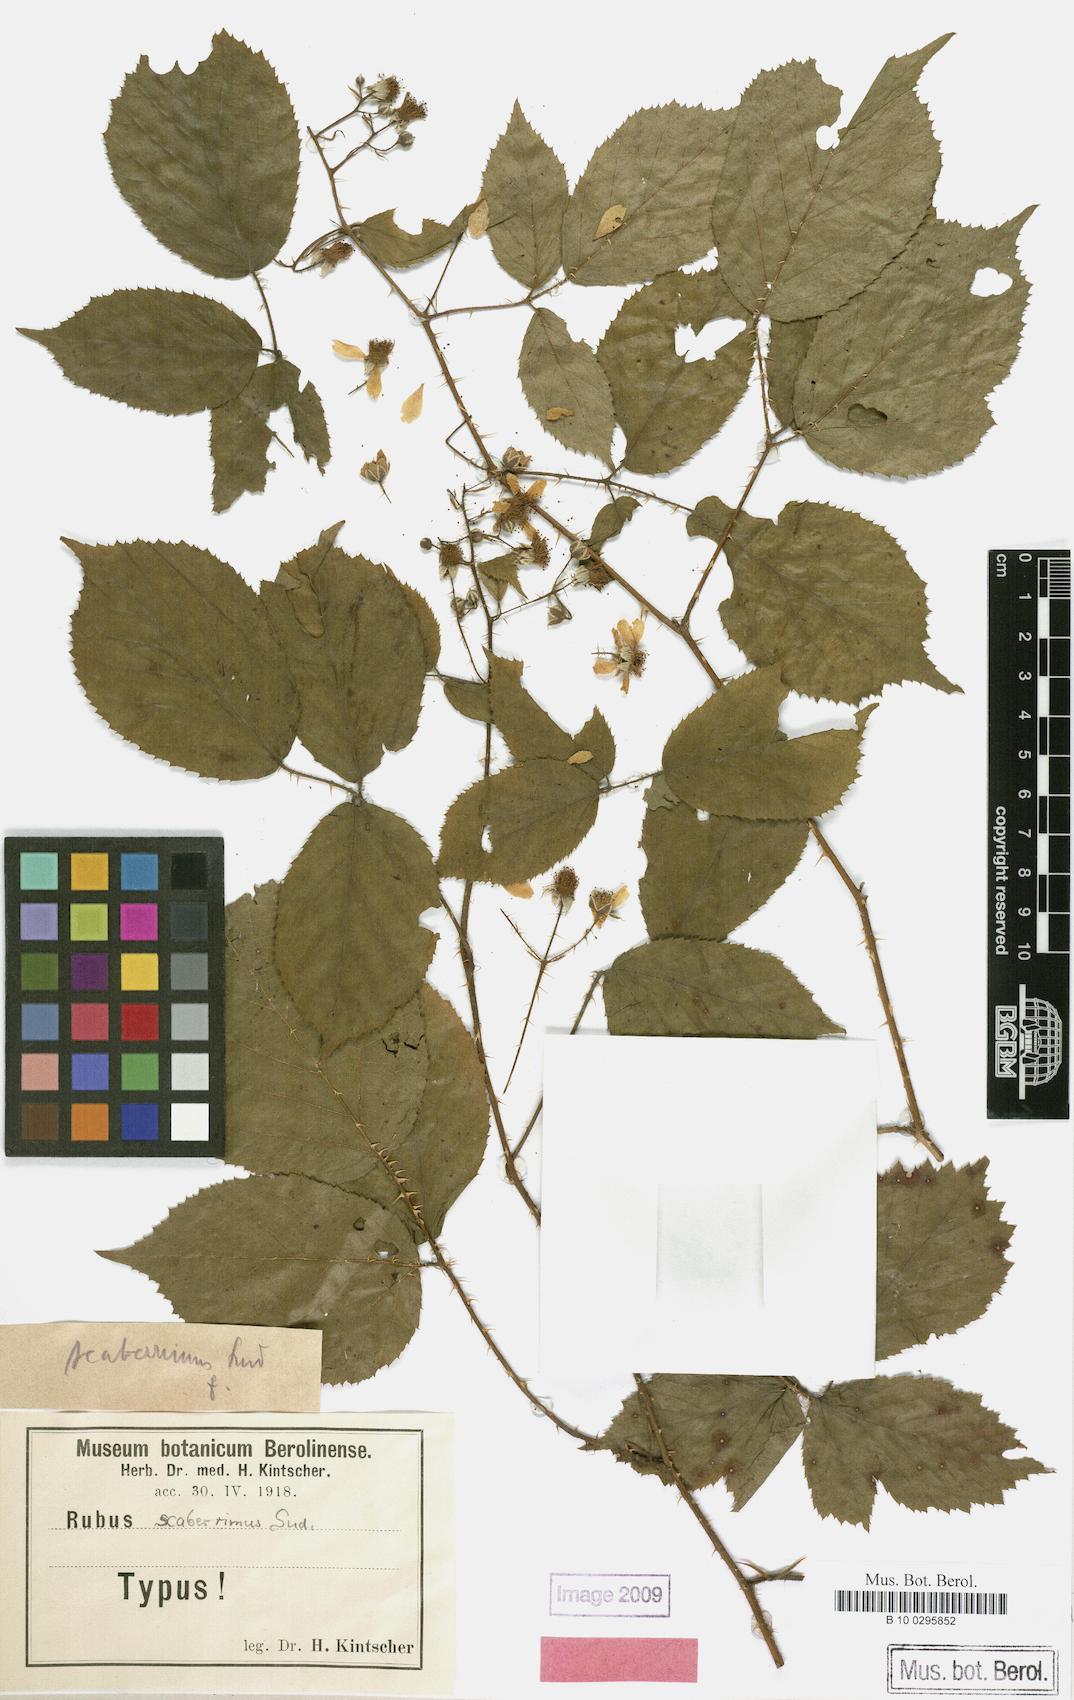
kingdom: Plantae
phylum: Tracheophyta
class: Magnoliopsida
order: Rosales
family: Rosaceae
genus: Rubus
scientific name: Rubus sentellus
